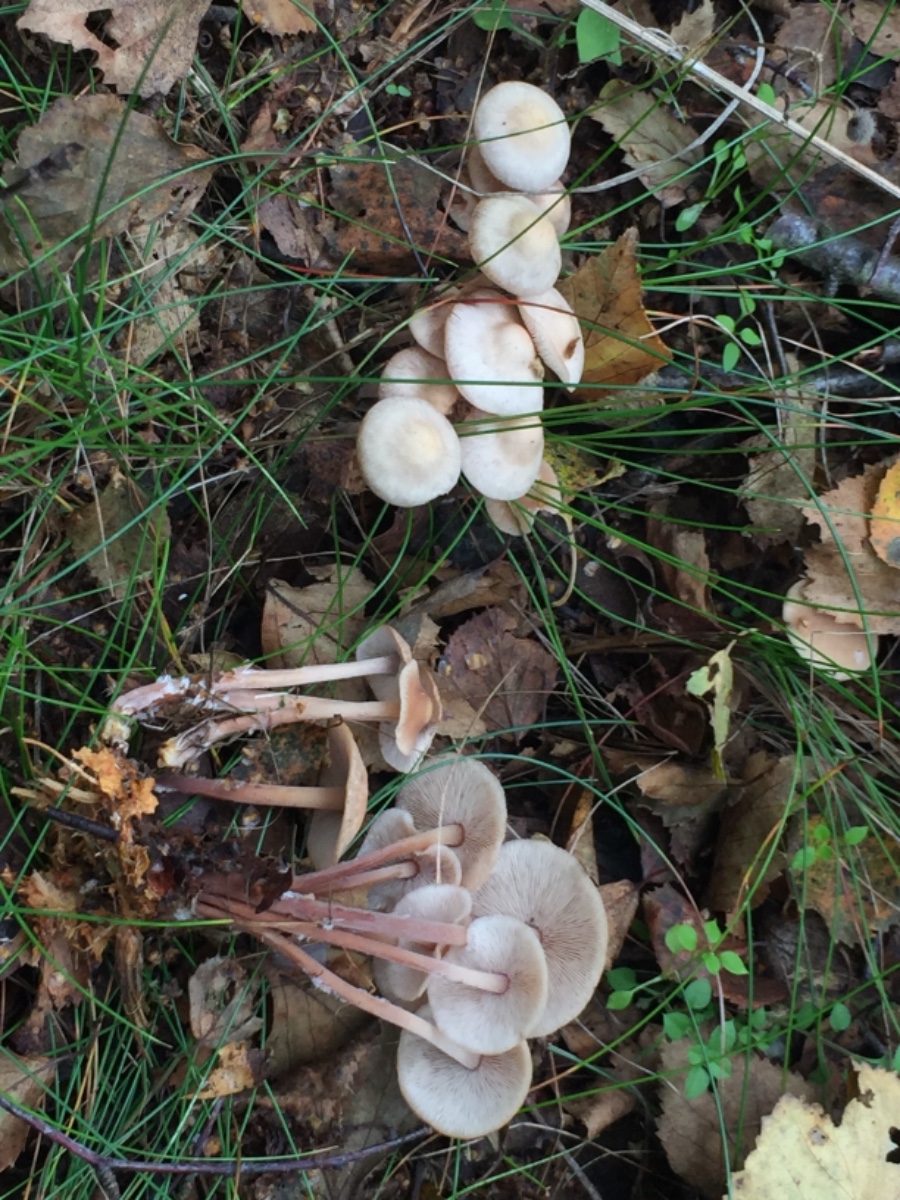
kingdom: Fungi
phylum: Basidiomycota
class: Agaricomycetes
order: Agaricales
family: Omphalotaceae
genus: Collybiopsis
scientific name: Collybiopsis confluens
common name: knippe-fladhat
